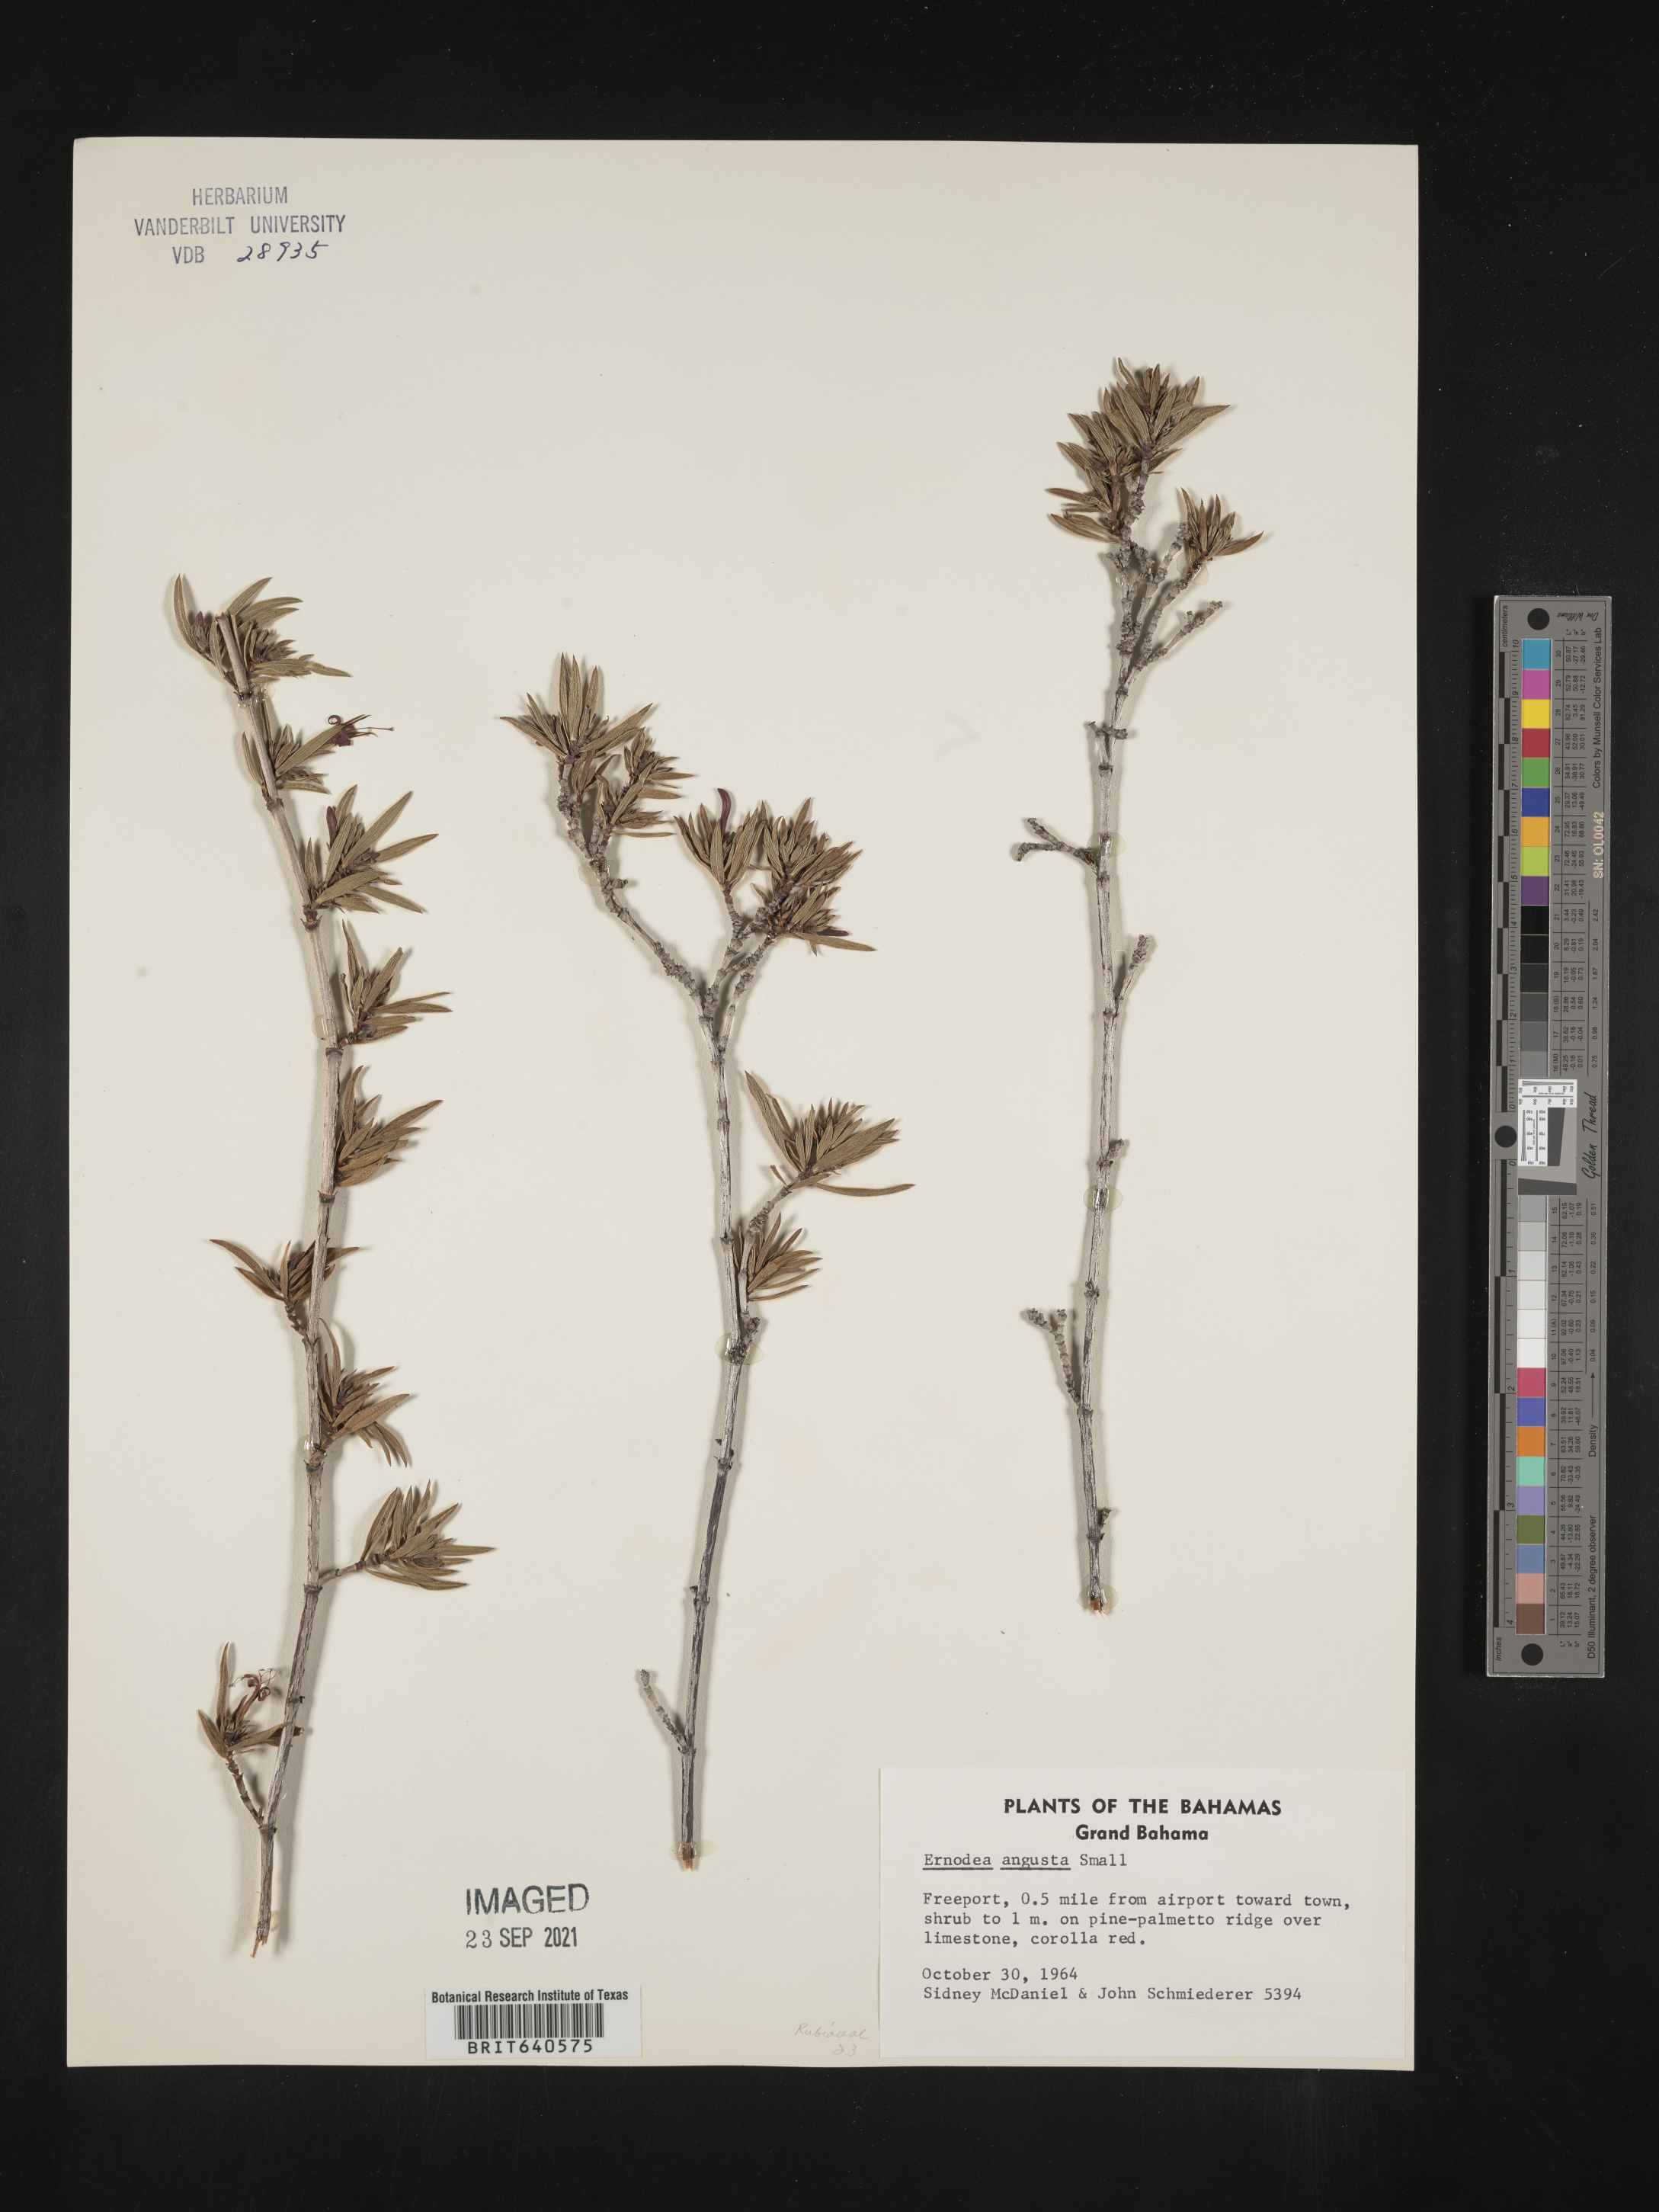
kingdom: Plantae
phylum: Tracheophyta
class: Magnoliopsida
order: Gentianales
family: Rubiaceae
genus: Ernodea
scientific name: Ernodea
